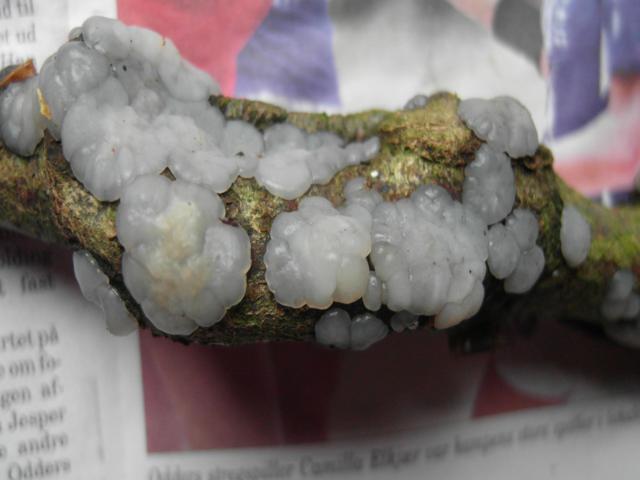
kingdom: Fungi
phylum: Basidiomycota
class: Agaricomycetes
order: Auriculariales
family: Auriculariaceae
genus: Exidia
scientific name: Exidia thuretiana
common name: hvidlig bævretop
